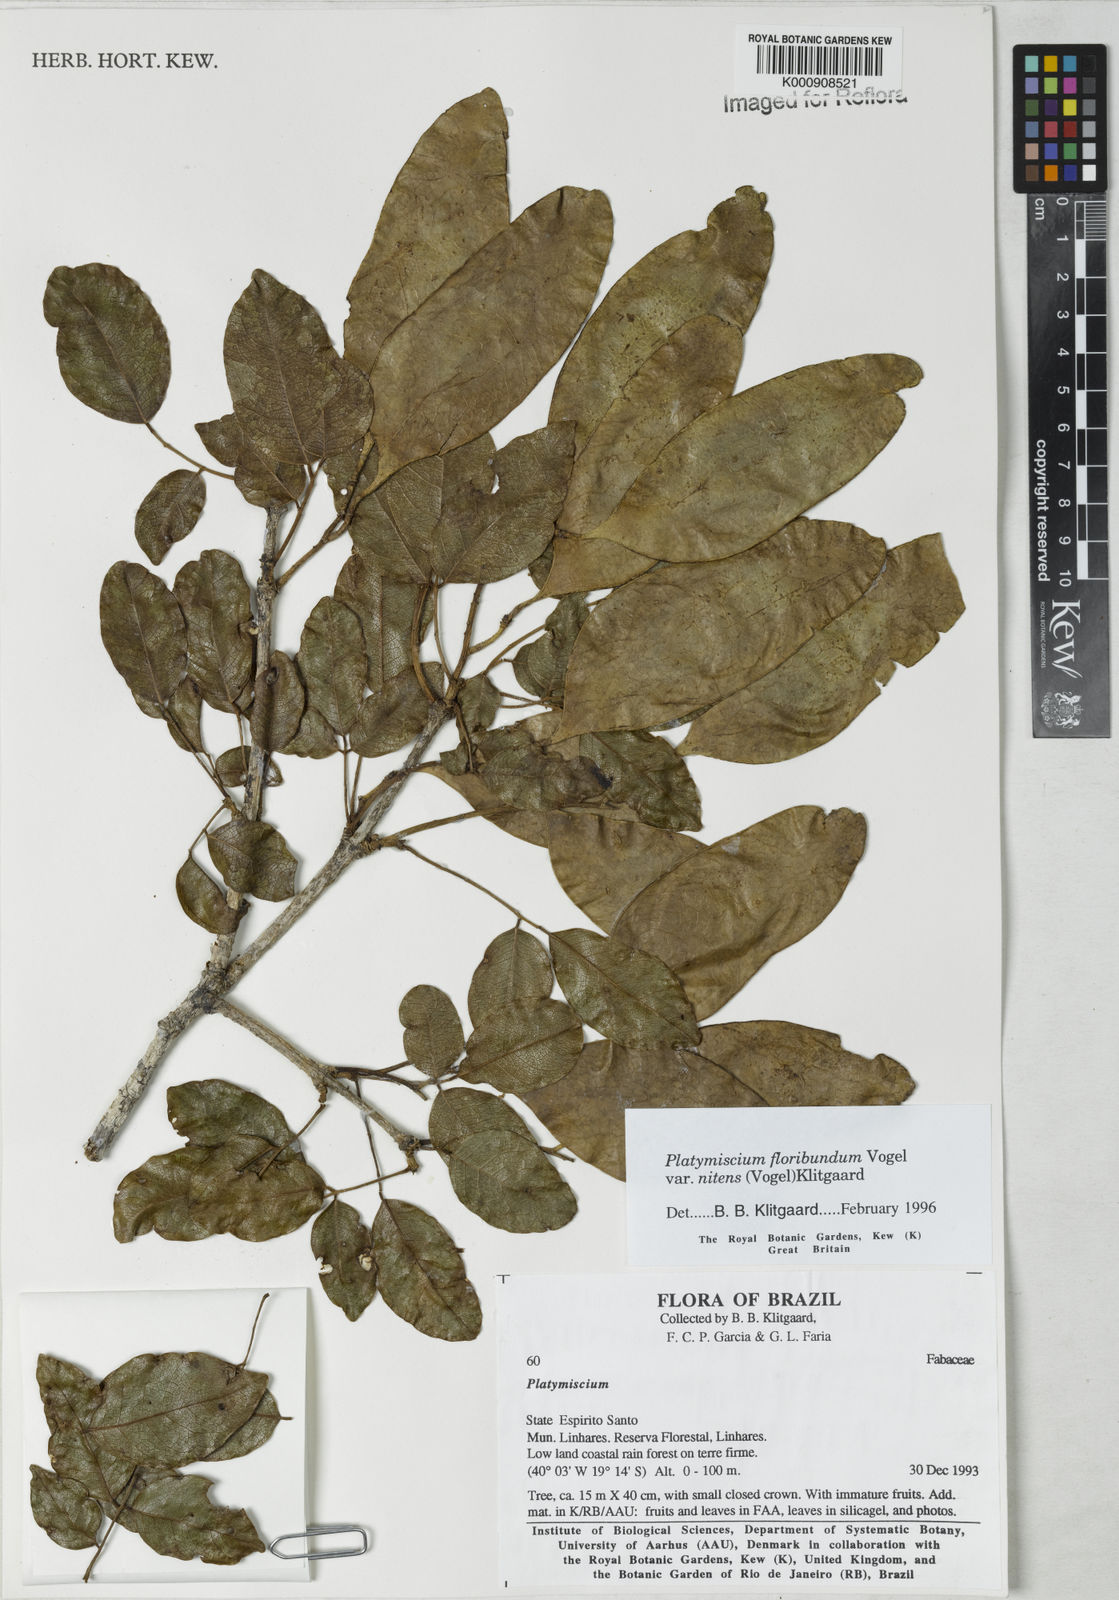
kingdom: Plantae
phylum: Tracheophyta
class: Magnoliopsida
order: Fabales
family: Fabaceae
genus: Platymiscium
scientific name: Platymiscium floribundum
